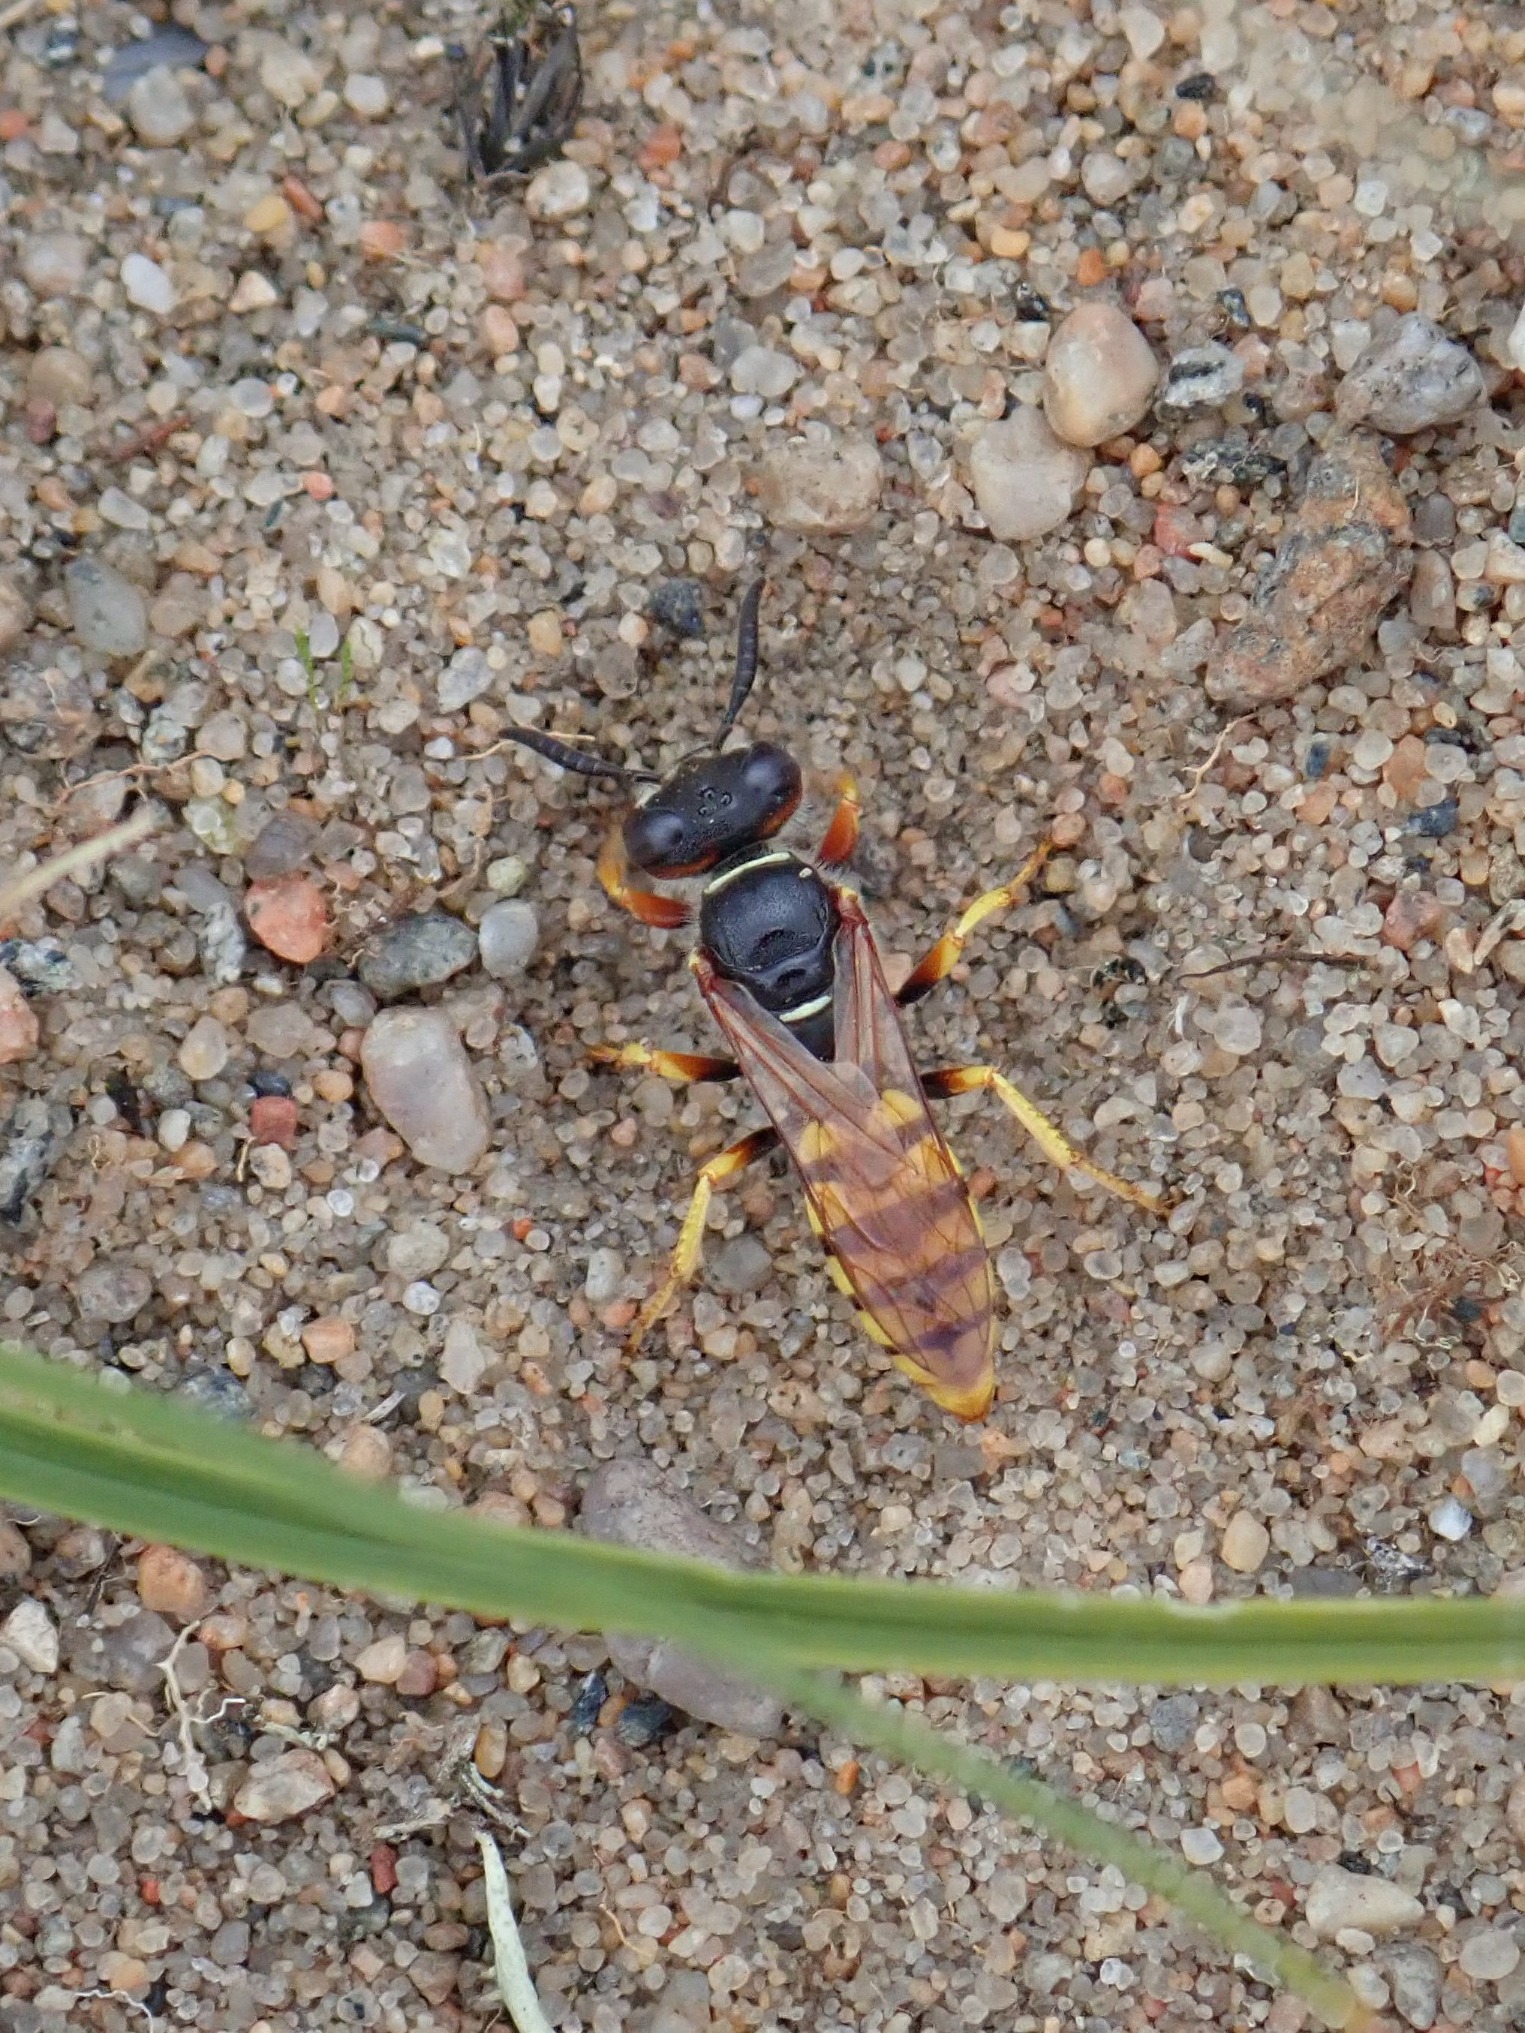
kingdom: Animalia
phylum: Arthropoda
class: Insecta
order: Hymenoptera
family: Crabronidae
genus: Philanthus
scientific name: Philanthus triangulum
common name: Biulv
